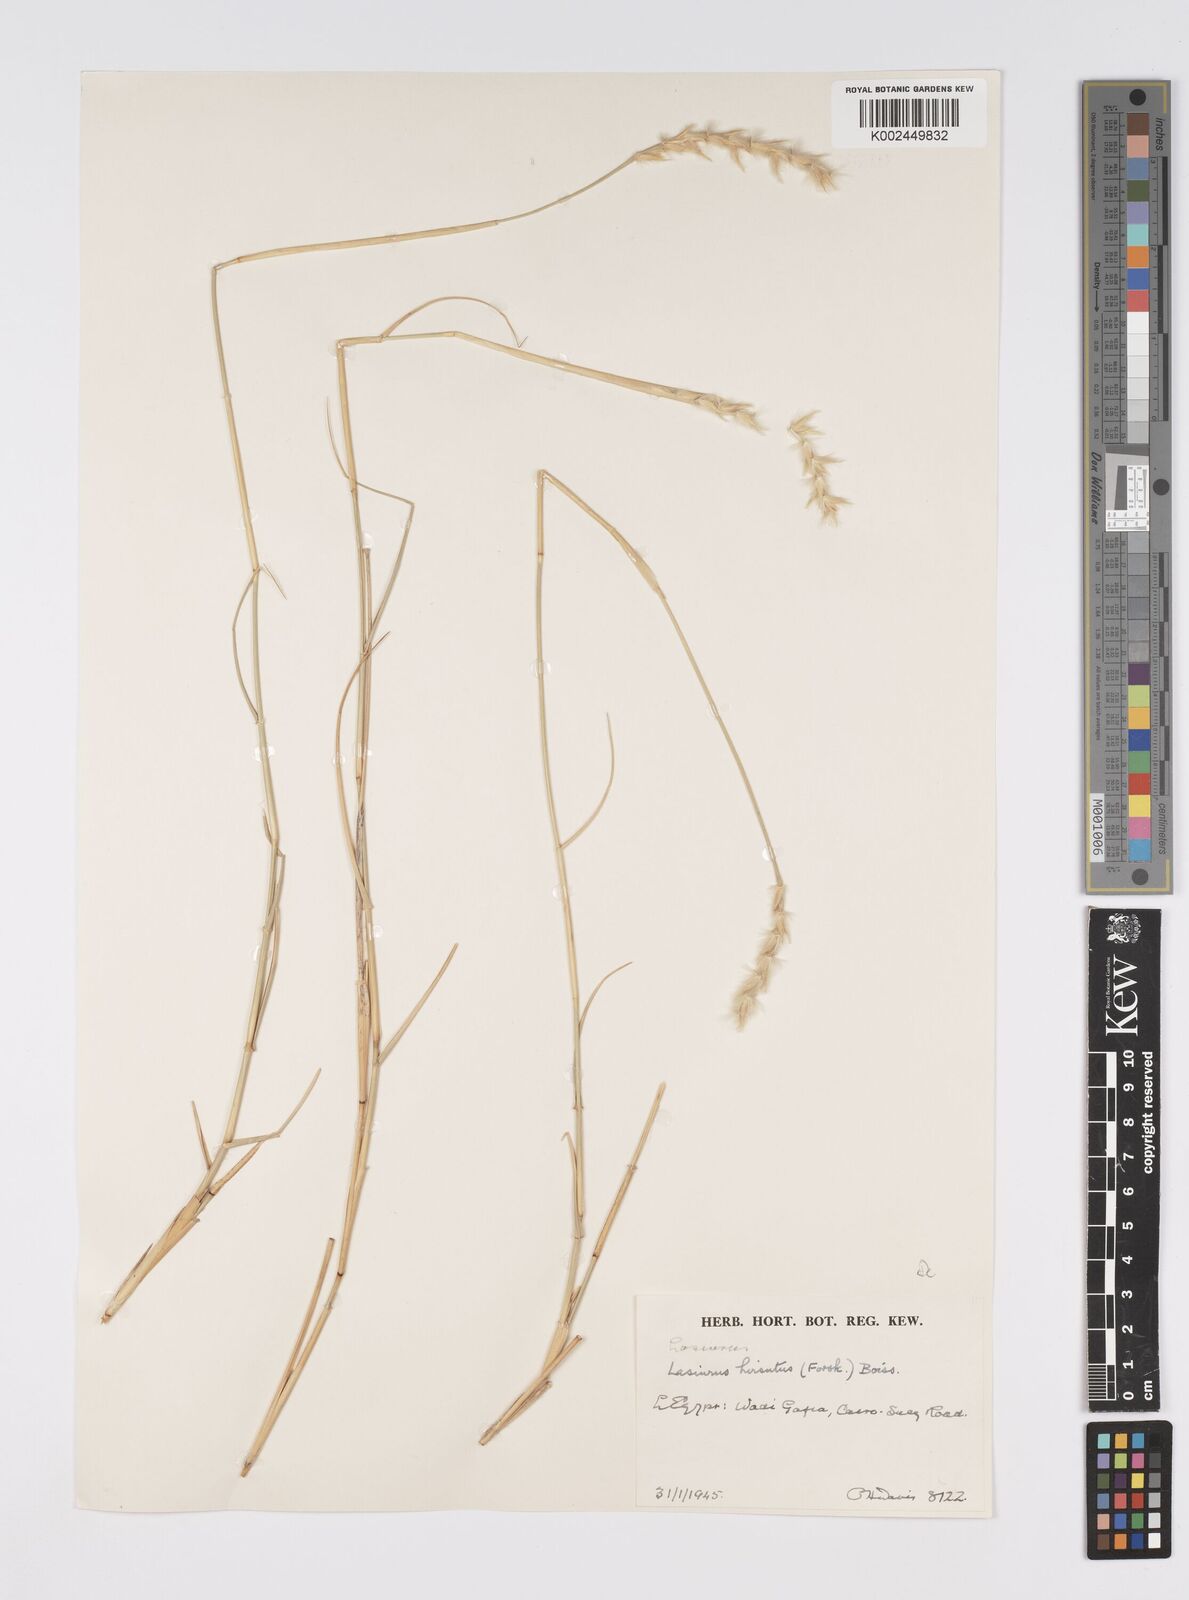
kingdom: Plantae
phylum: Tracheophyta
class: Liliopsida
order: Poales
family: Poaceae
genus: Lasiurus
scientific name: Lasiurus scindicus
